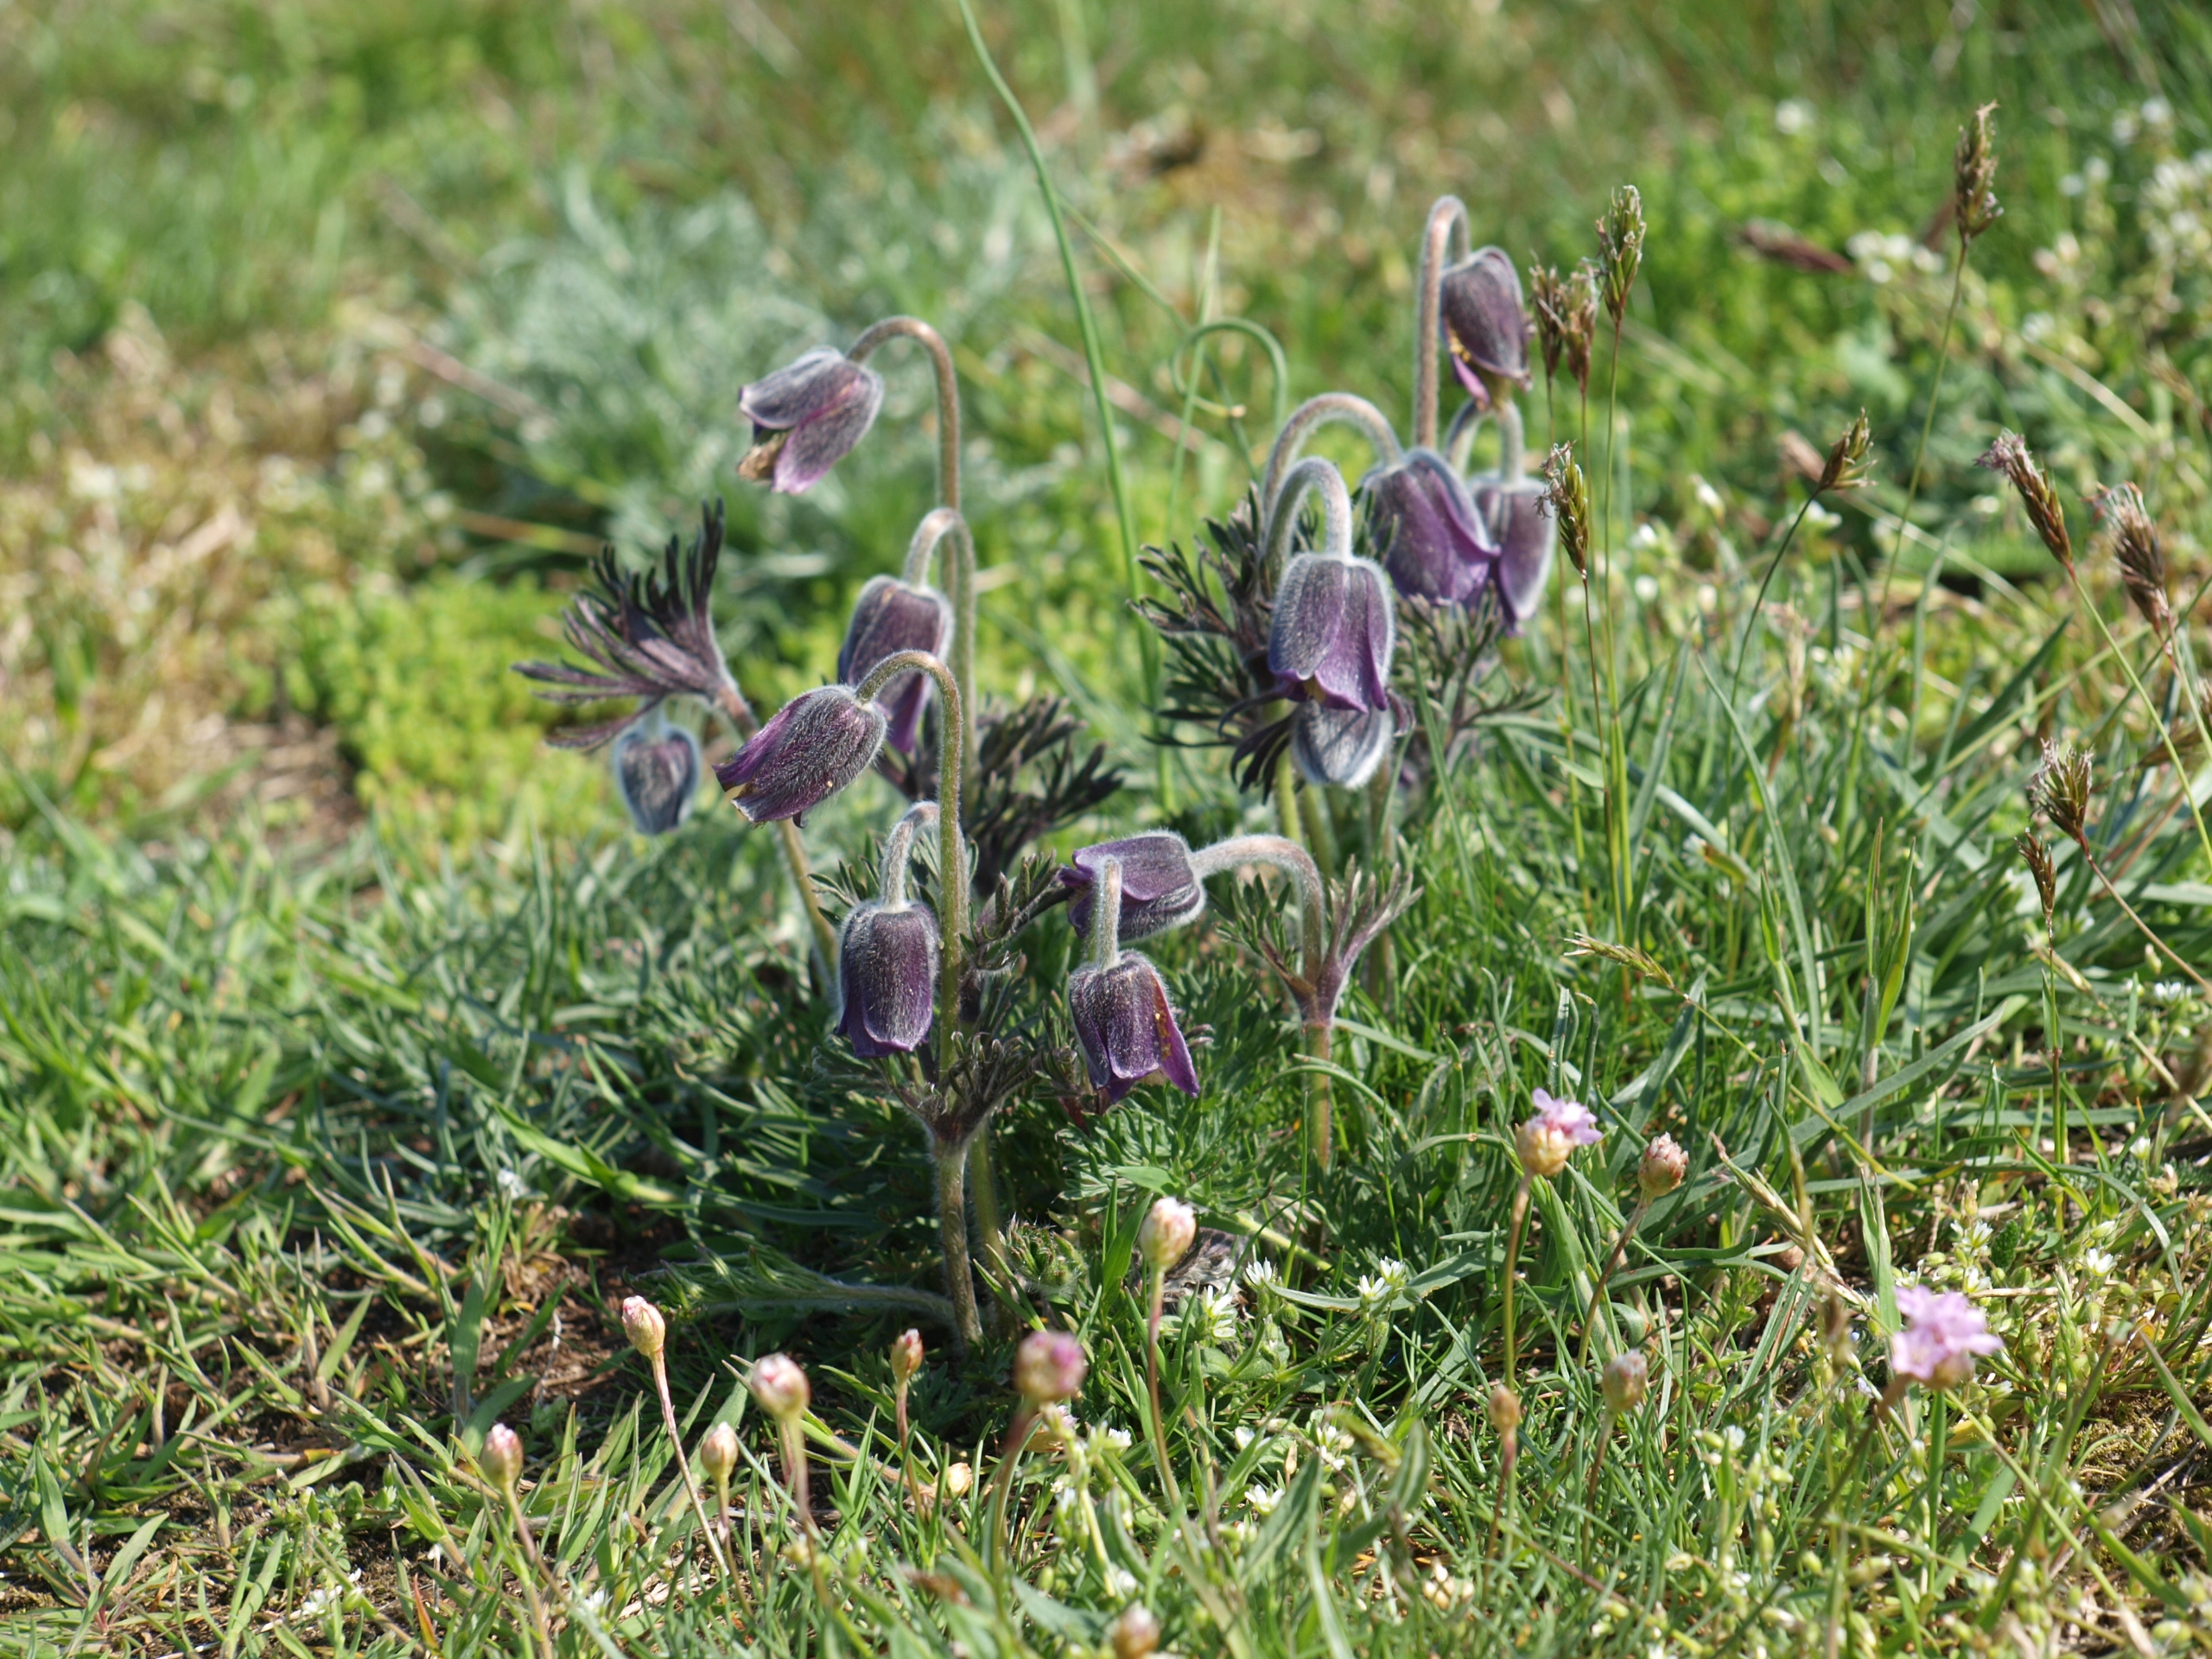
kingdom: Plantae
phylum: Tracheophyta
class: Magnoliopsida
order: Ranunculales
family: Ranunculaceae
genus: Pulsatilla
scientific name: Pulsatilla pratensis
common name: Nikkende kobjælde
